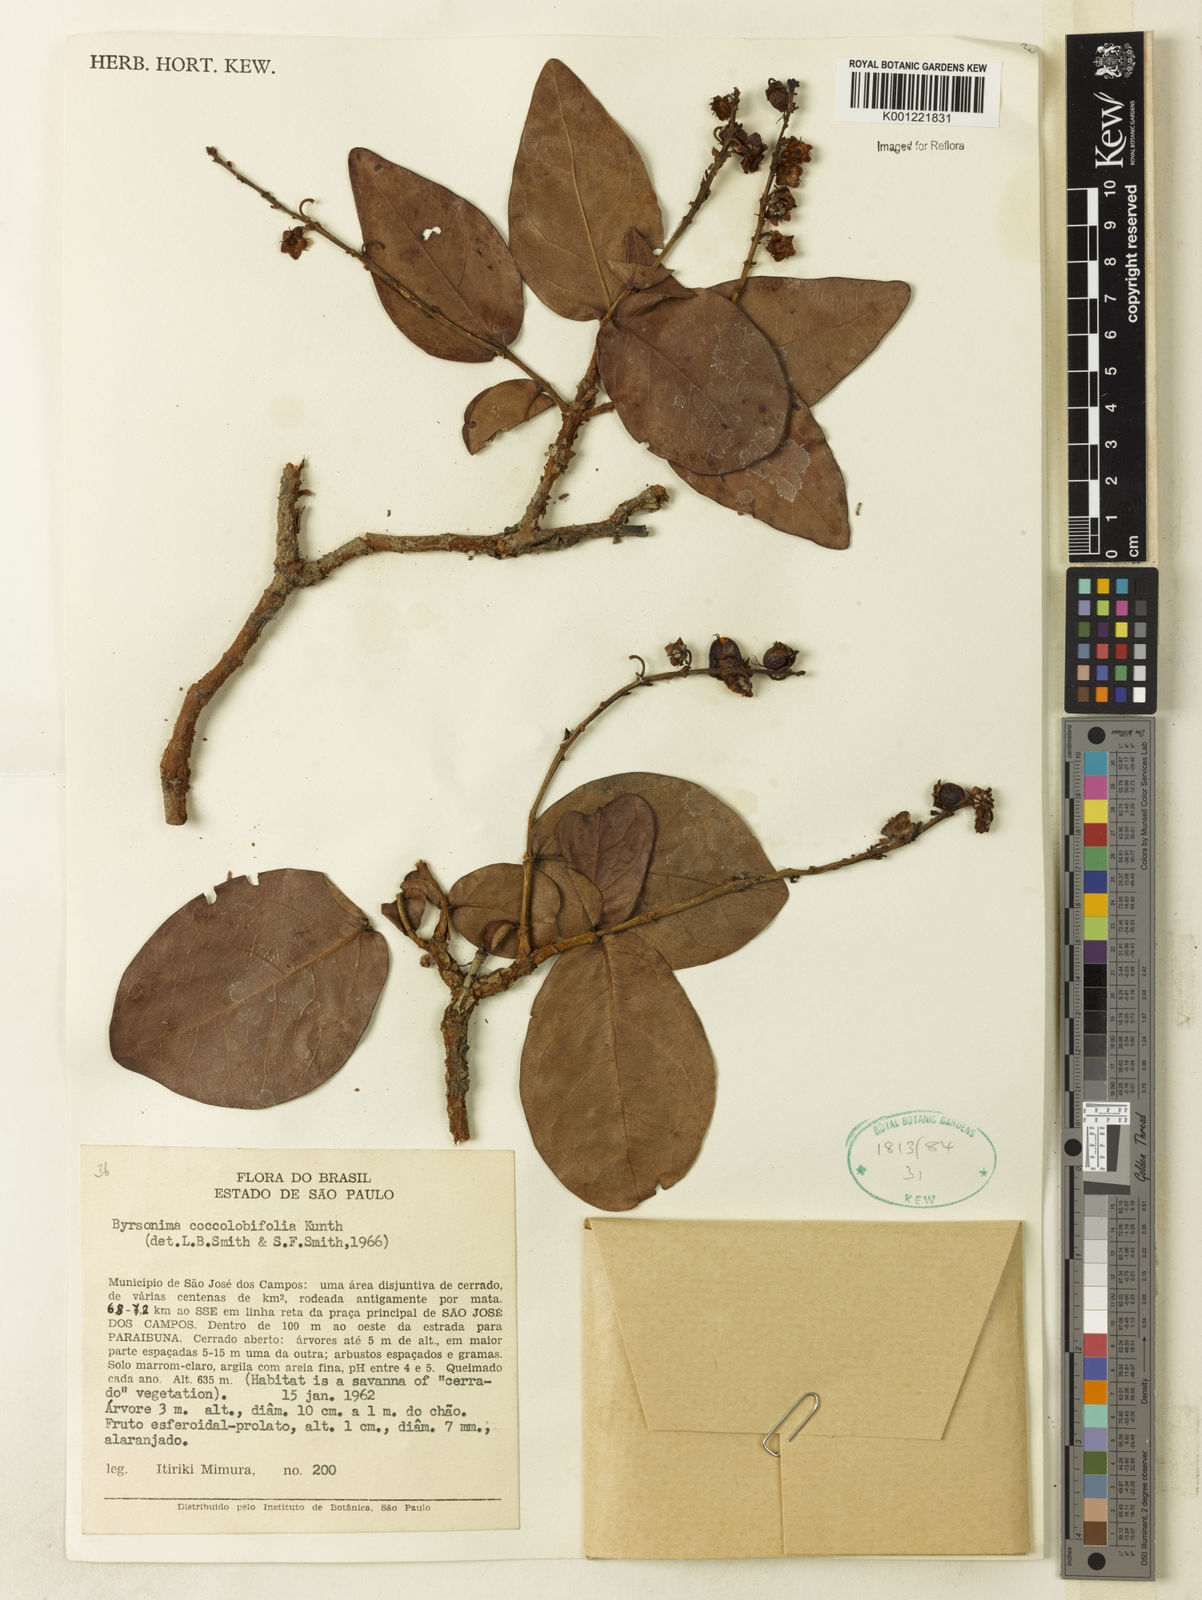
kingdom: Plantae
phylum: Tracheophyta
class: Magnoliopsida
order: Malpighiales
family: Malpighiaceae
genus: Byrsonima
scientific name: Byrsonima coccolobifolia
